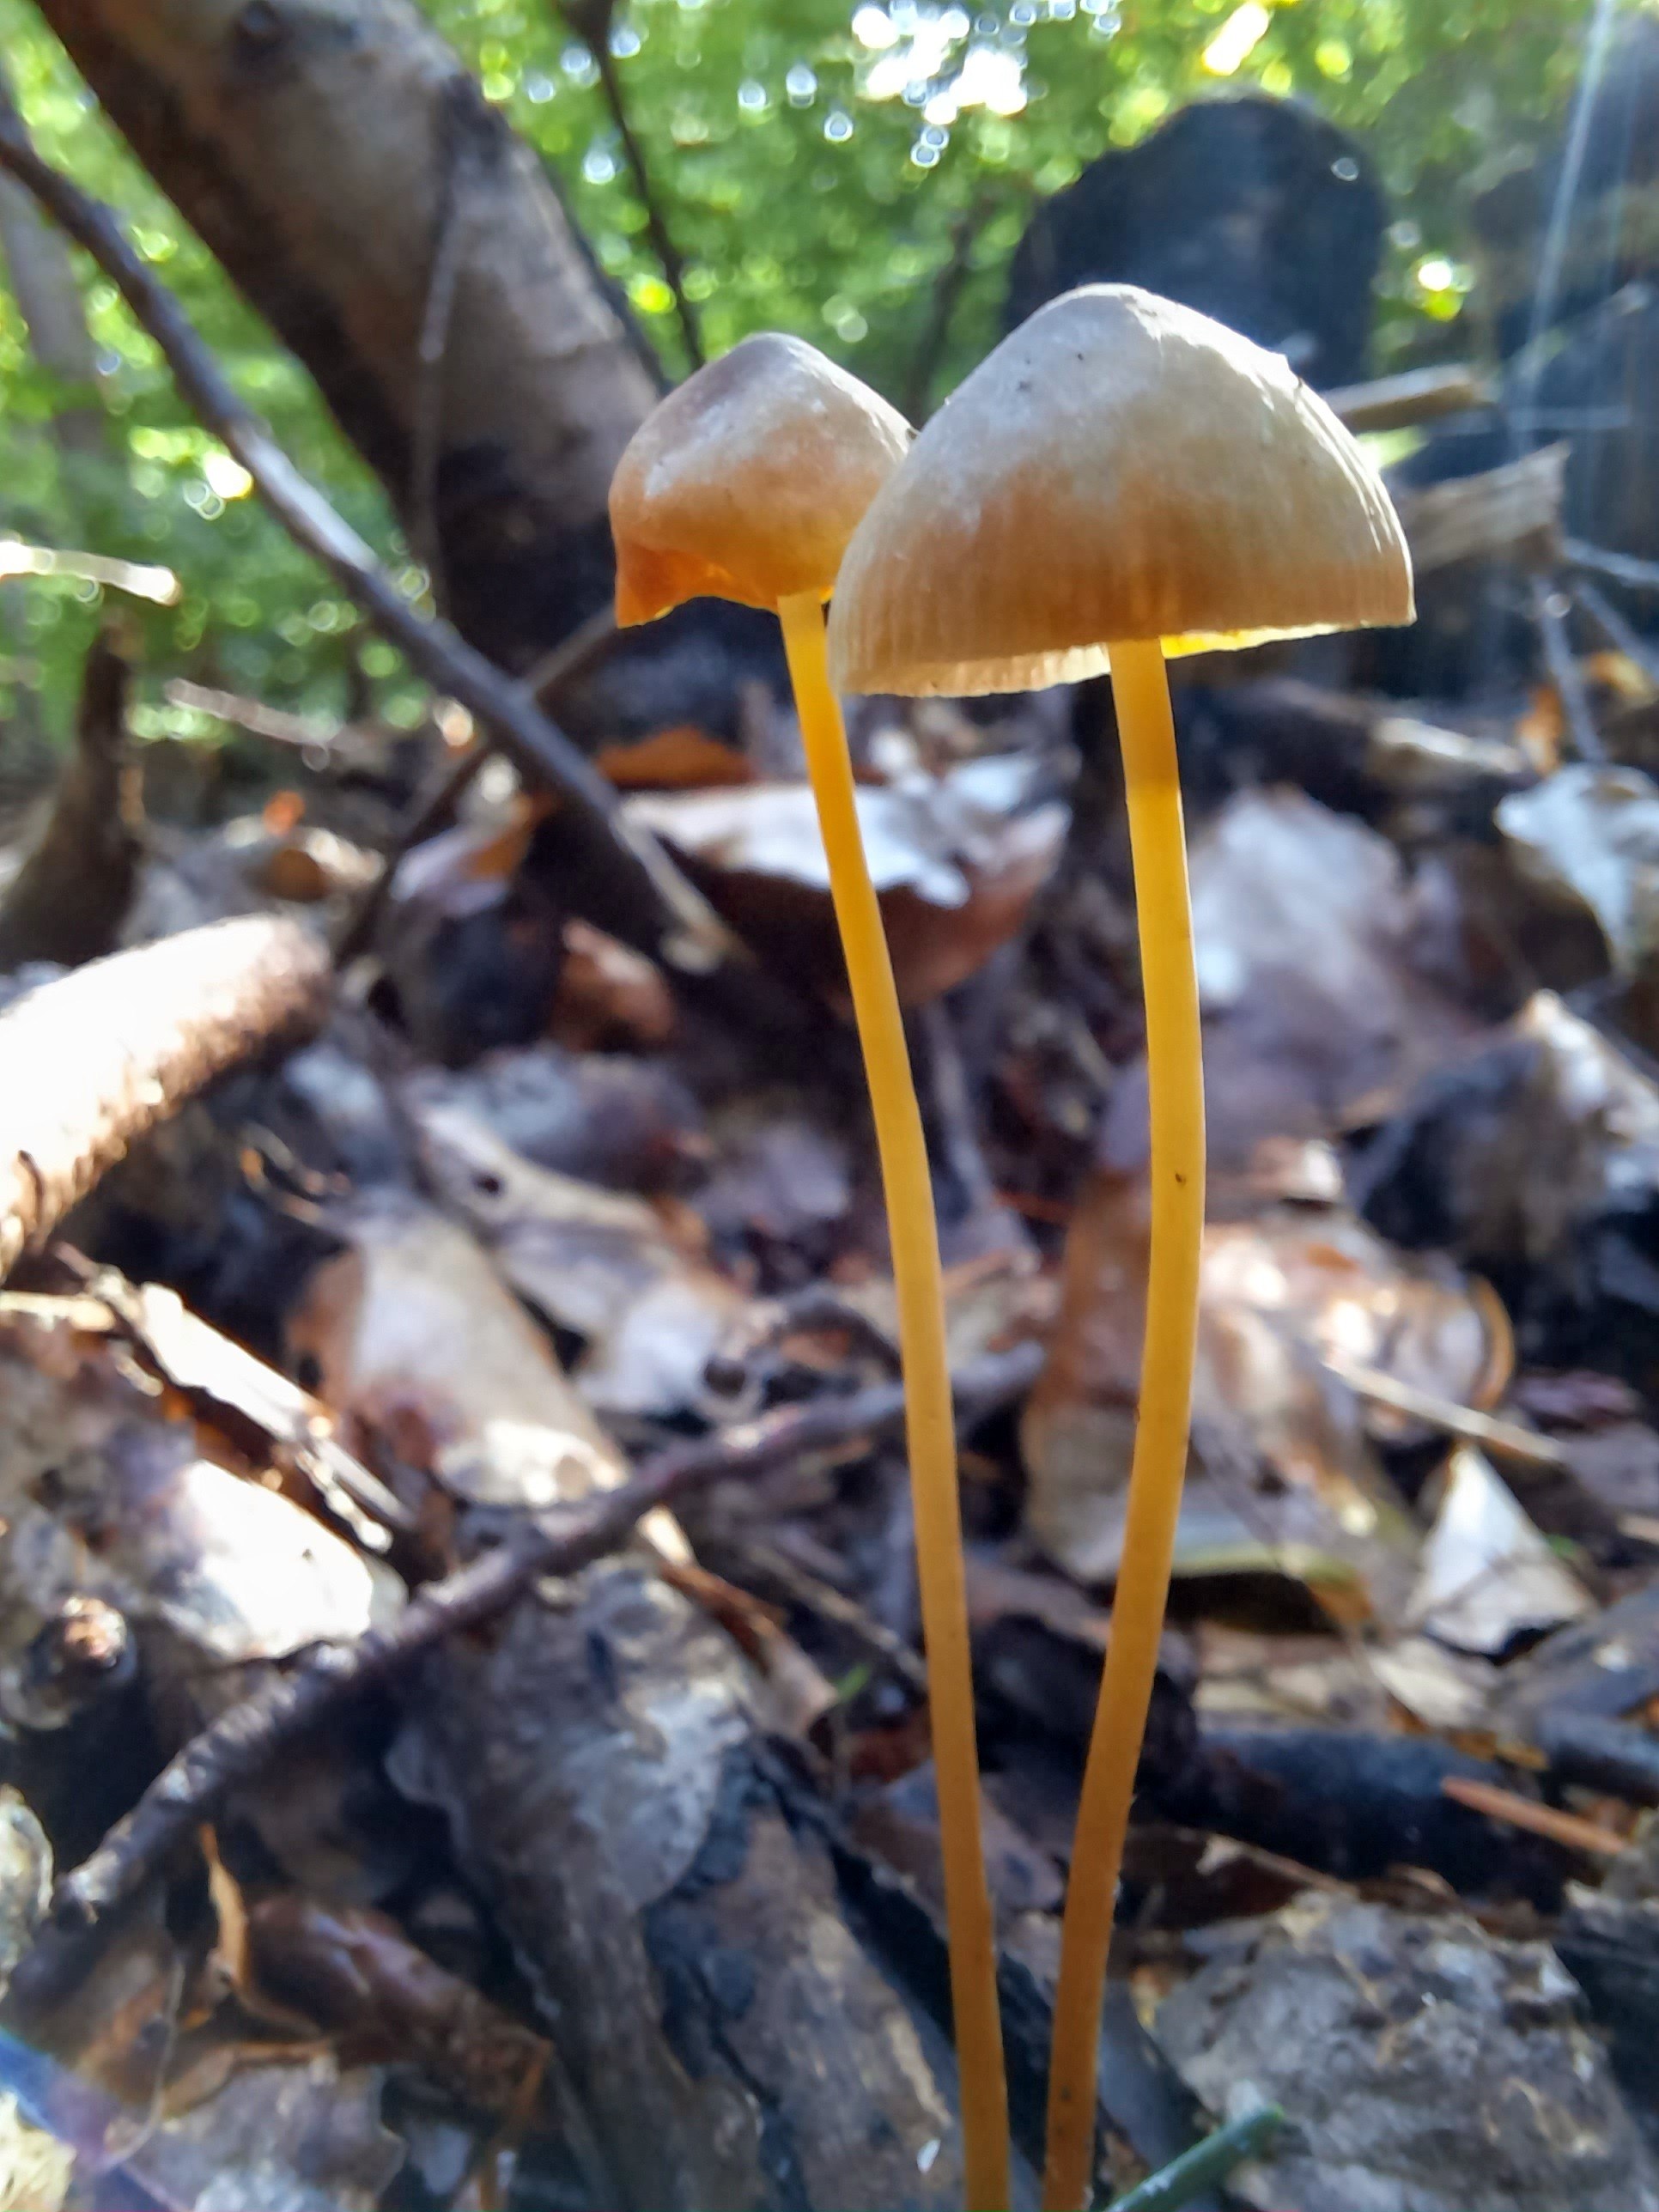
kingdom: Fungi
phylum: Basidiomycota
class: Agaricomycetes
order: Agaricales
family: Mycenaceae
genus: Mycena
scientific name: Mycena crocata
